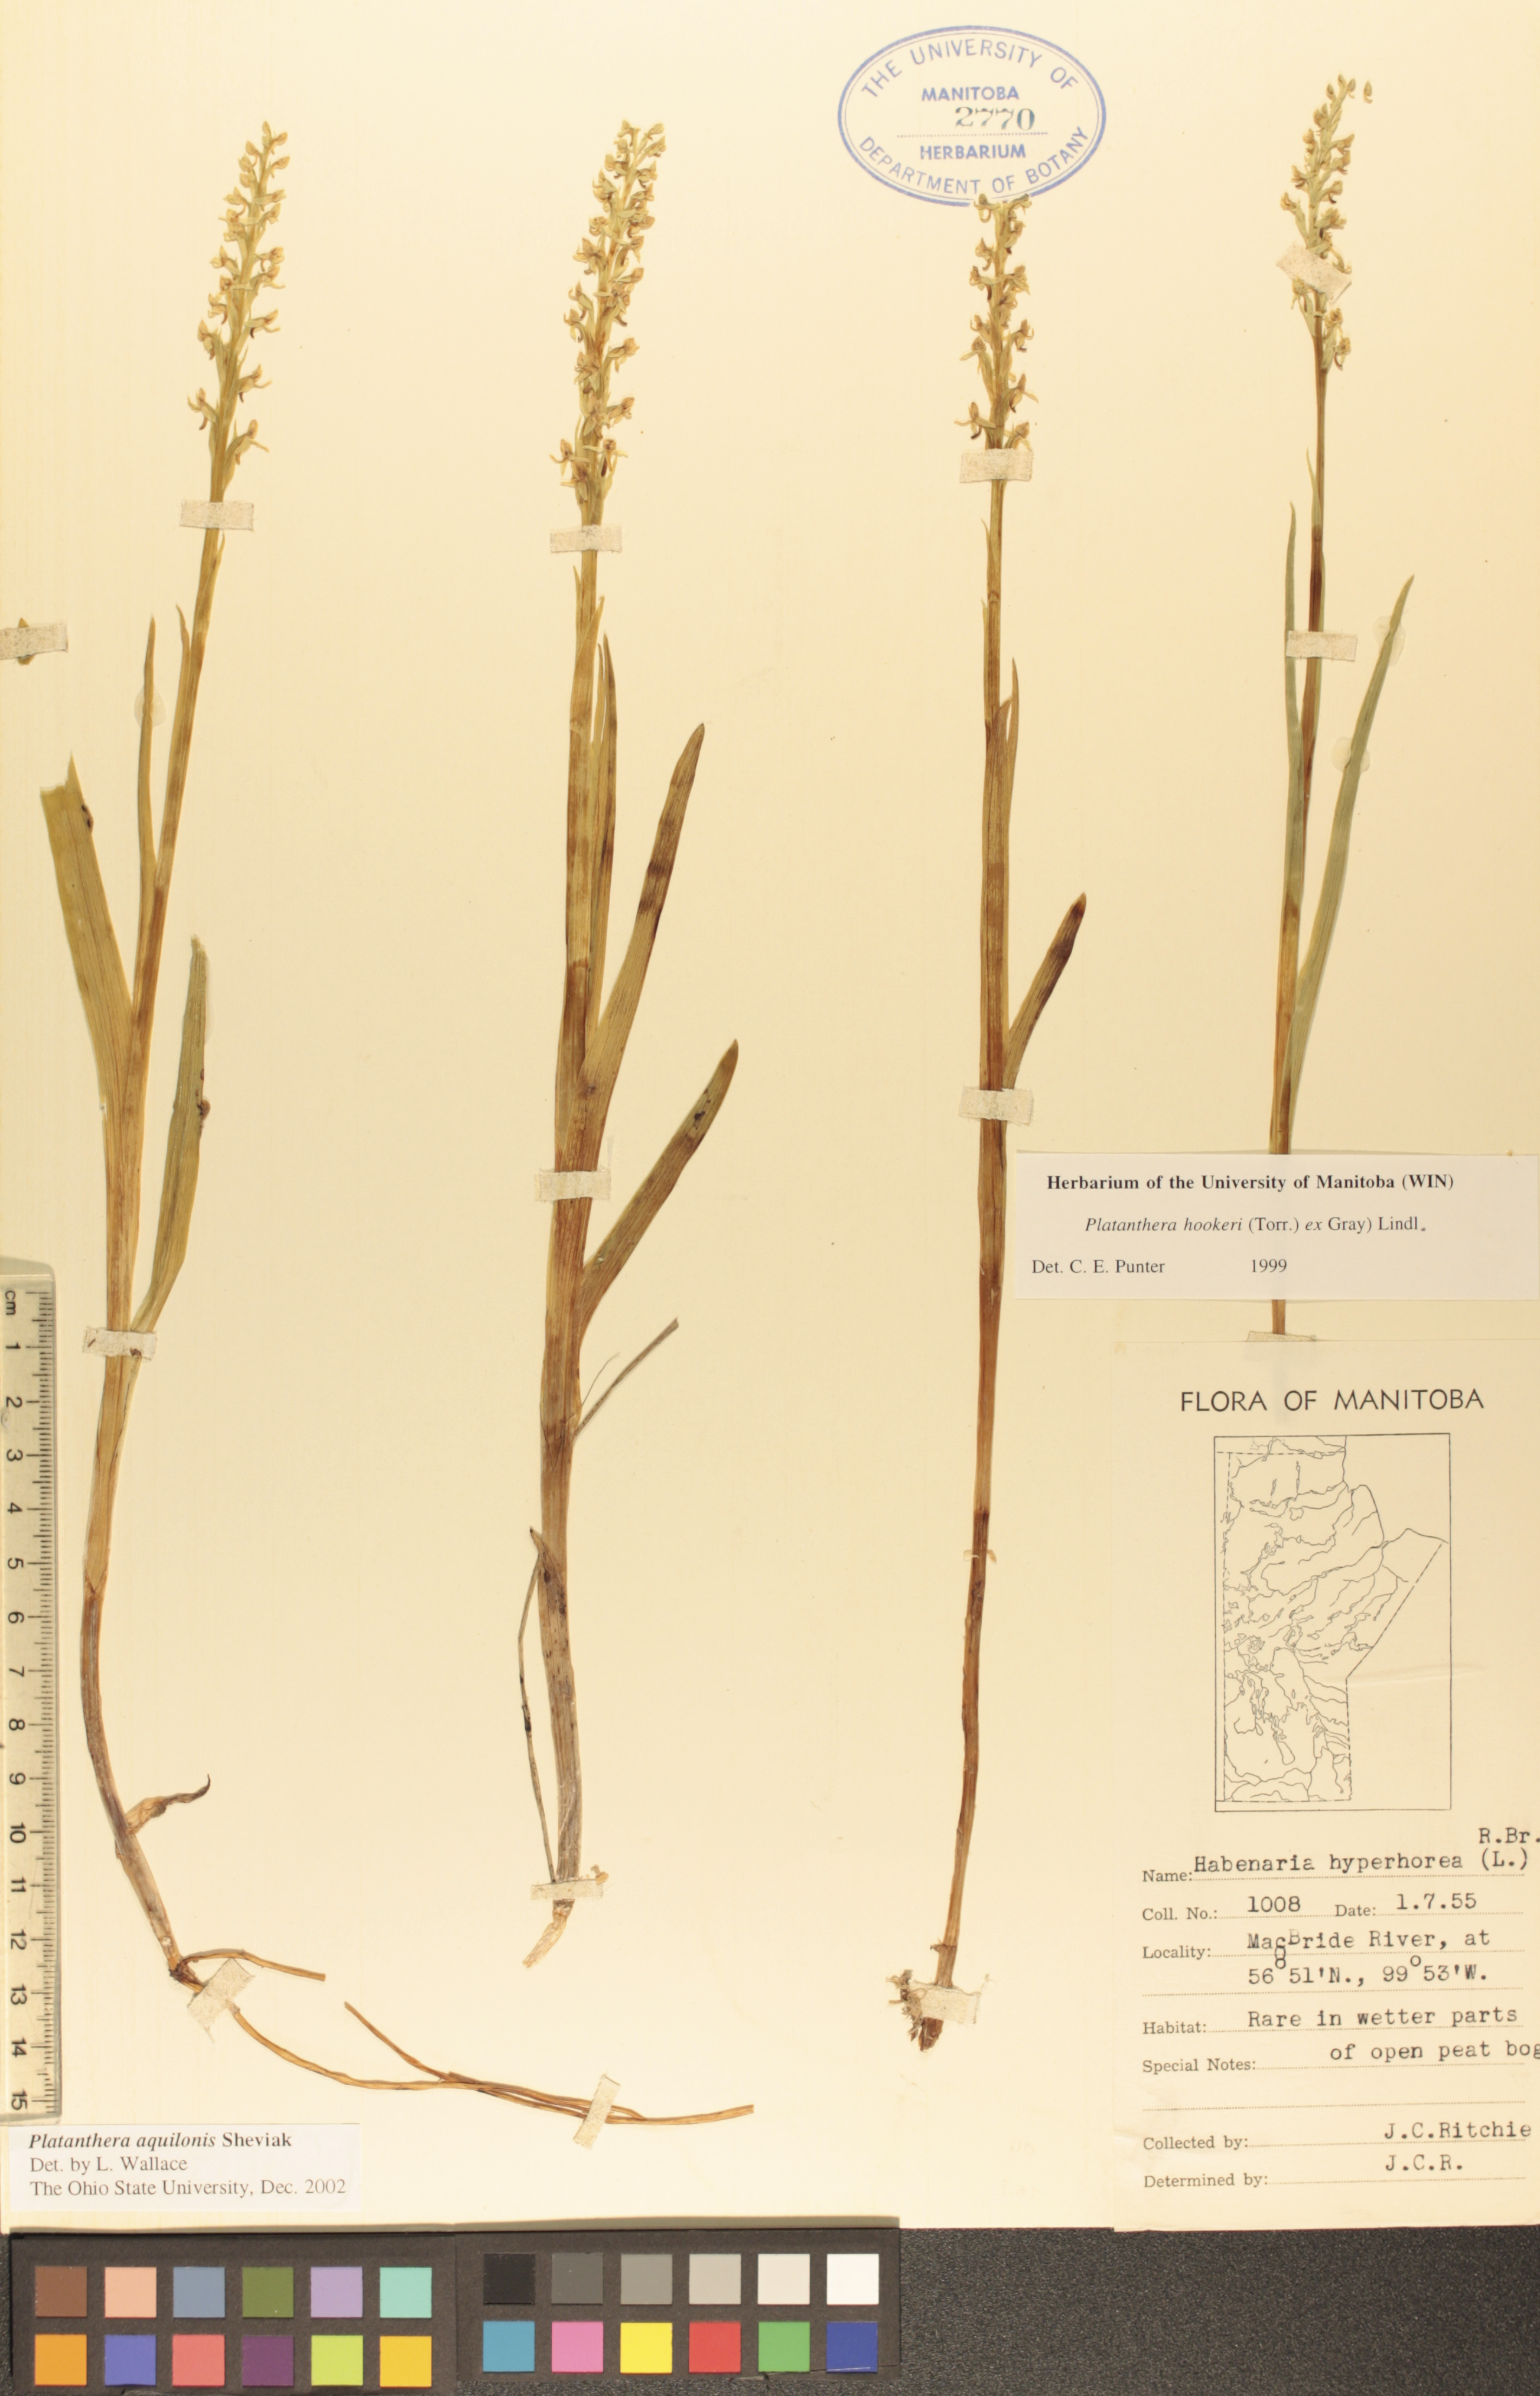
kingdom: Plantae
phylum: Tracheophyta
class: Liliopsida
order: Asparagales
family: Orchidaceae
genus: Platanthera
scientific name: Platanthera aquilonis
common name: Northern green orchid
